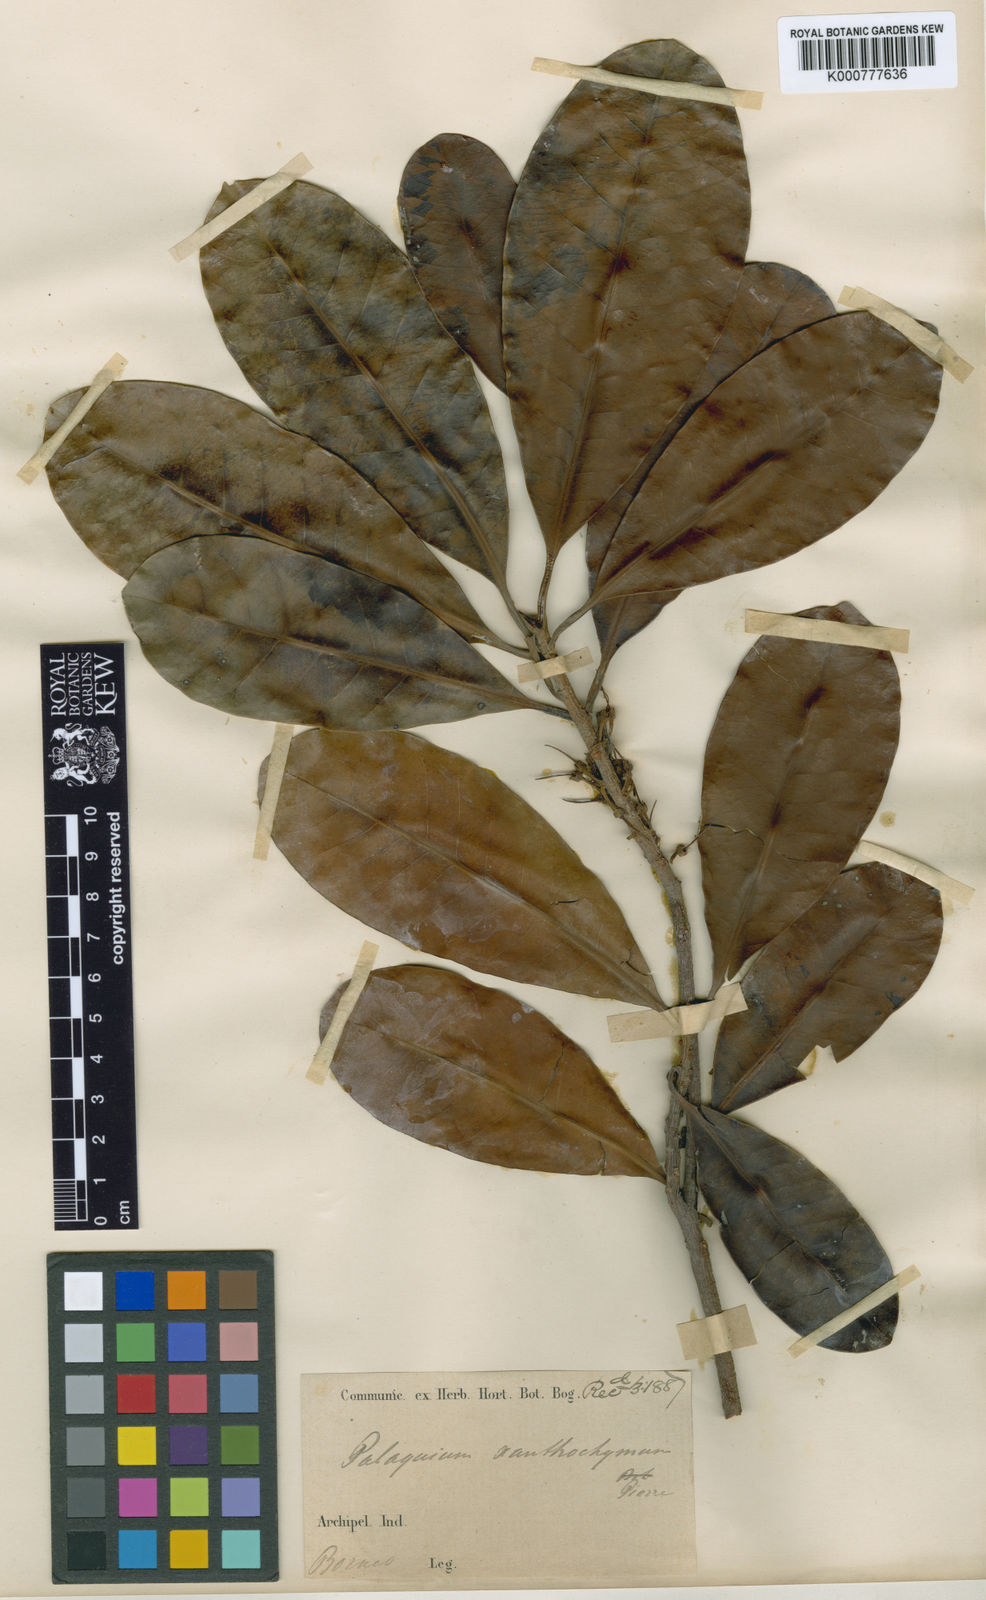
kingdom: Plantae
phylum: Tracheophyta
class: Magnoliopsida
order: Ericales
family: Sapotaceae
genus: Palaquium
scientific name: Palaquium xanthochymum
